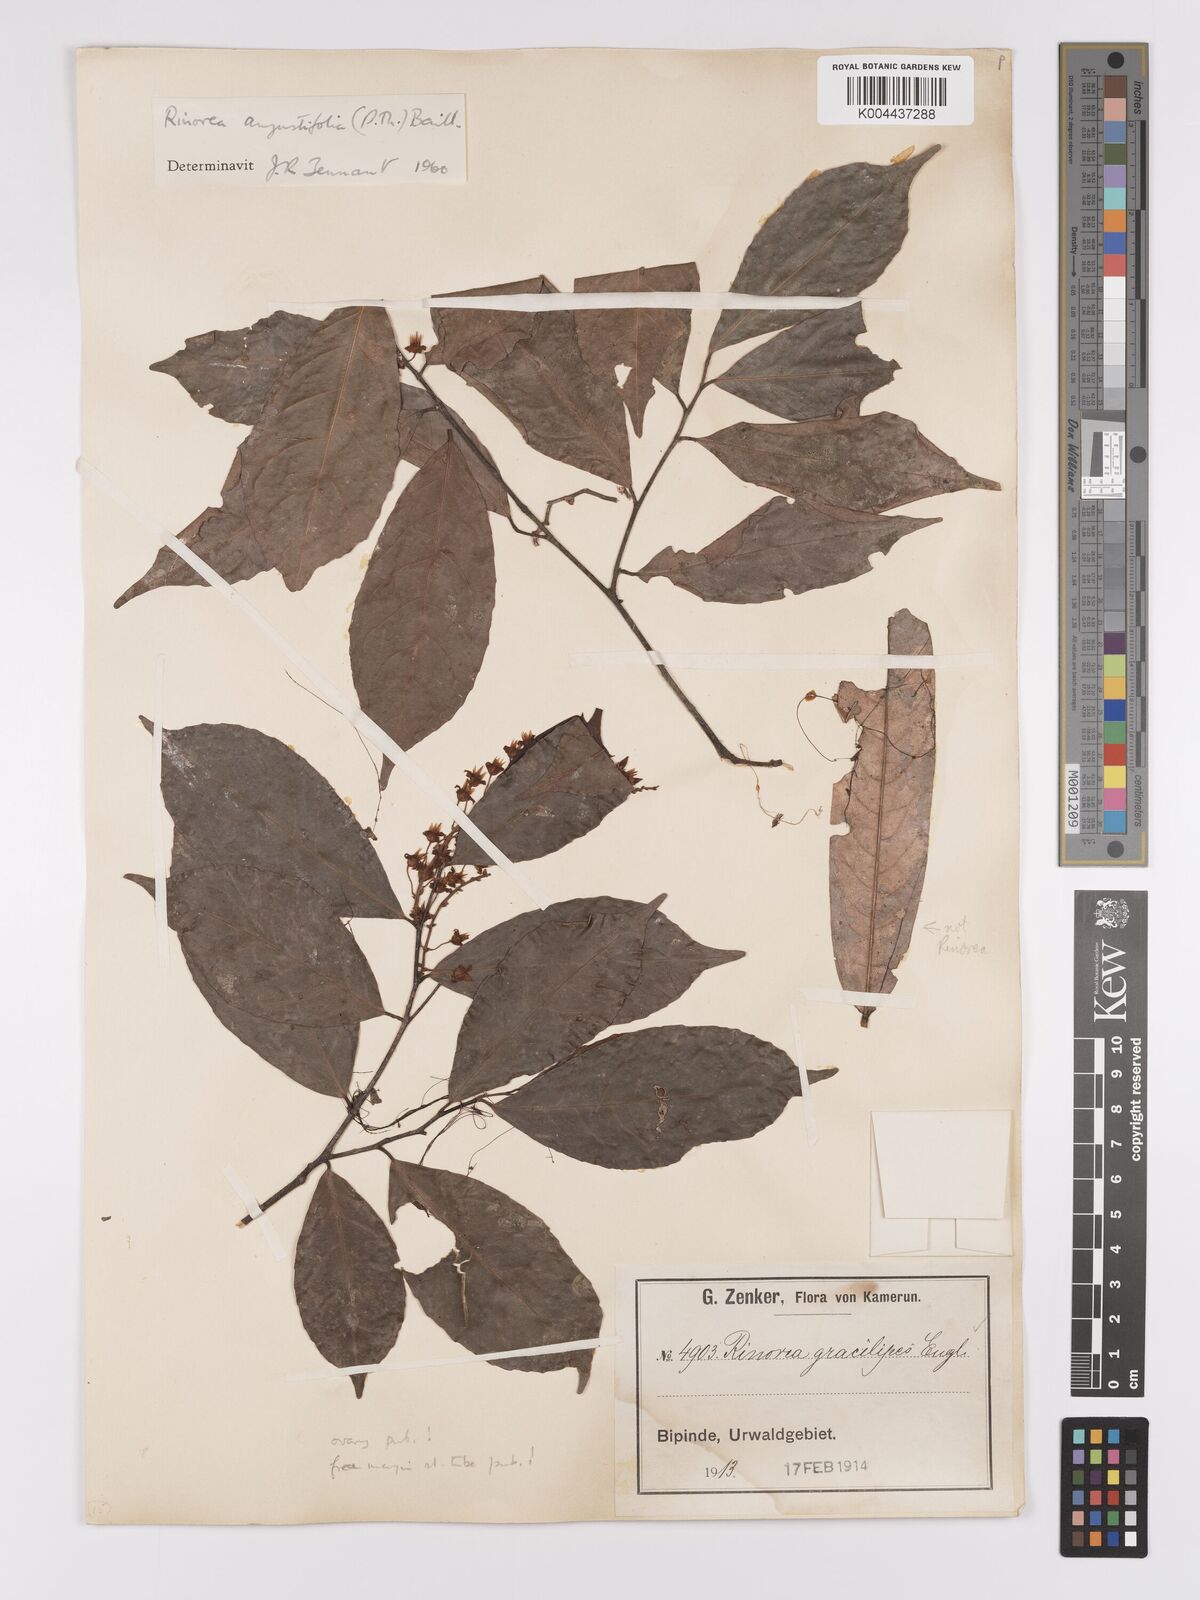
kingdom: Plantae
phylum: Tracheophyta
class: Magnoliopsida
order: Malpighiales
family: Violaceae
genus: Rinorea
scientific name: Rinorea angustifolia
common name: White violet-bush
